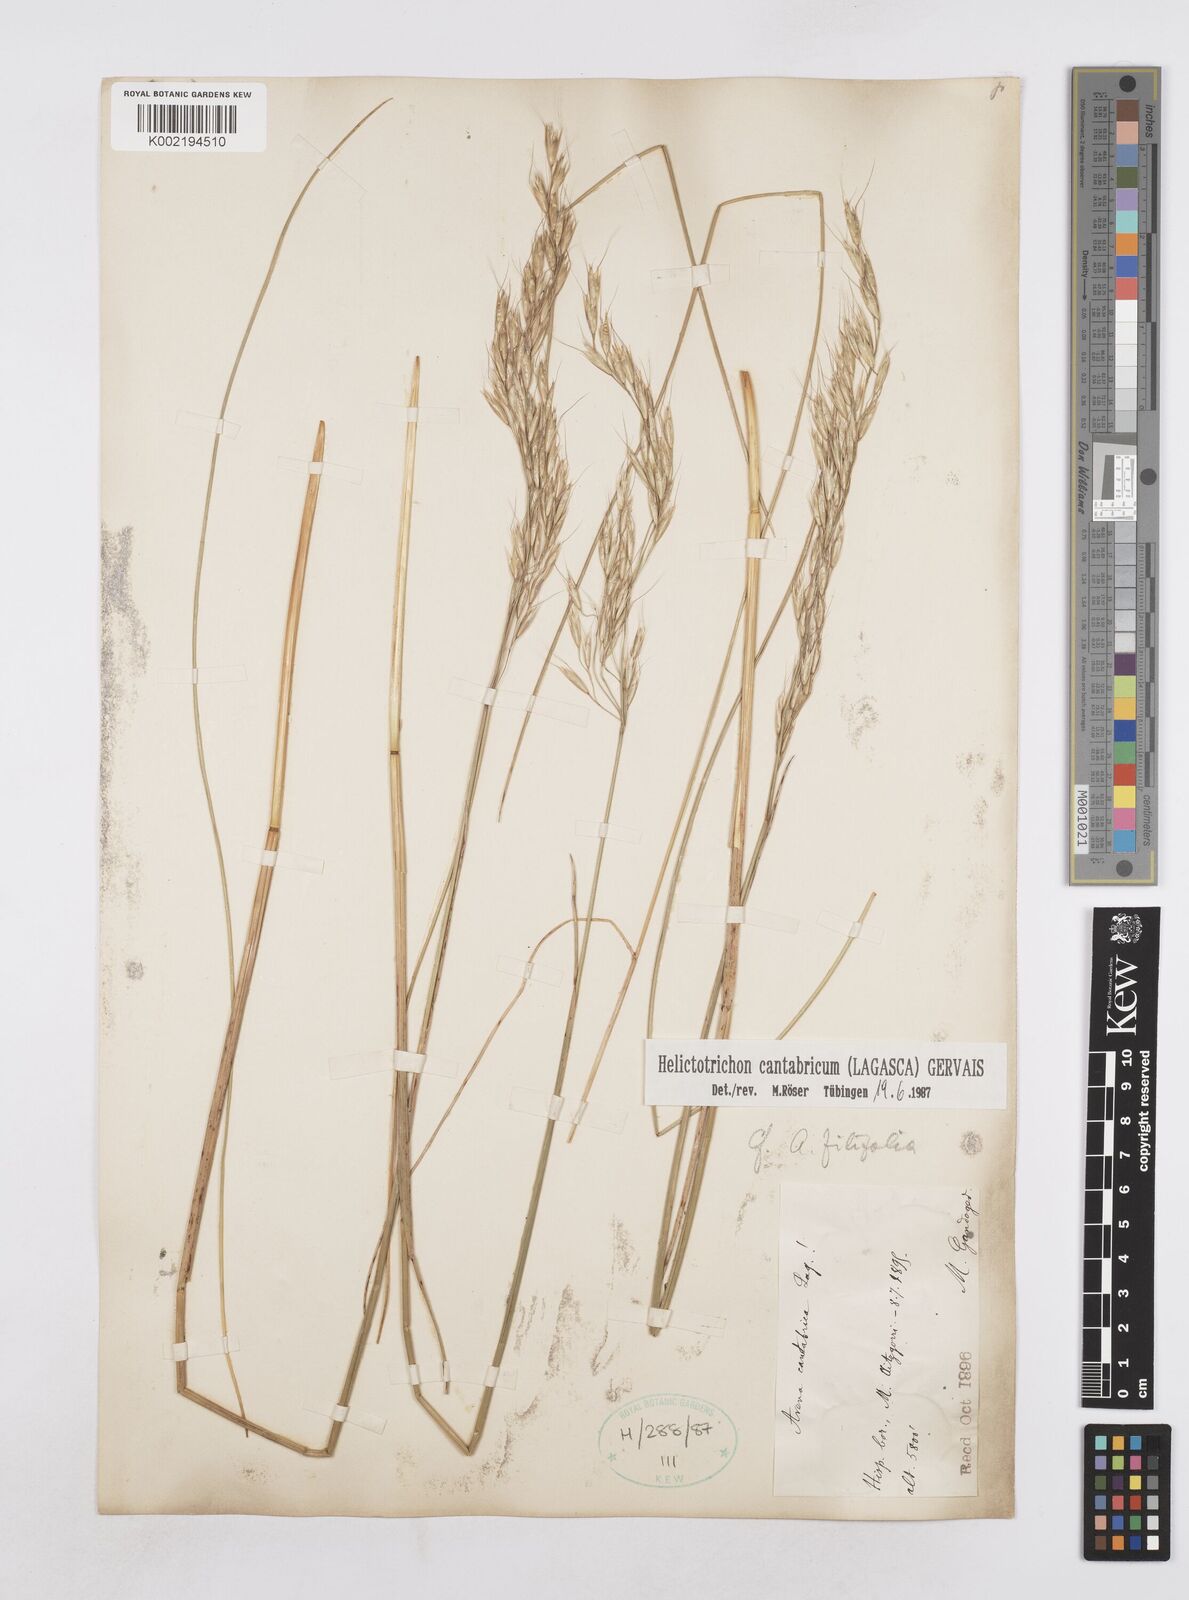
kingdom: Plantae
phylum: Tracheophyta
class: Liliopsida
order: Poales
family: Poaceae
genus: Helictotrichon
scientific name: Helictotrichon cantabricum
